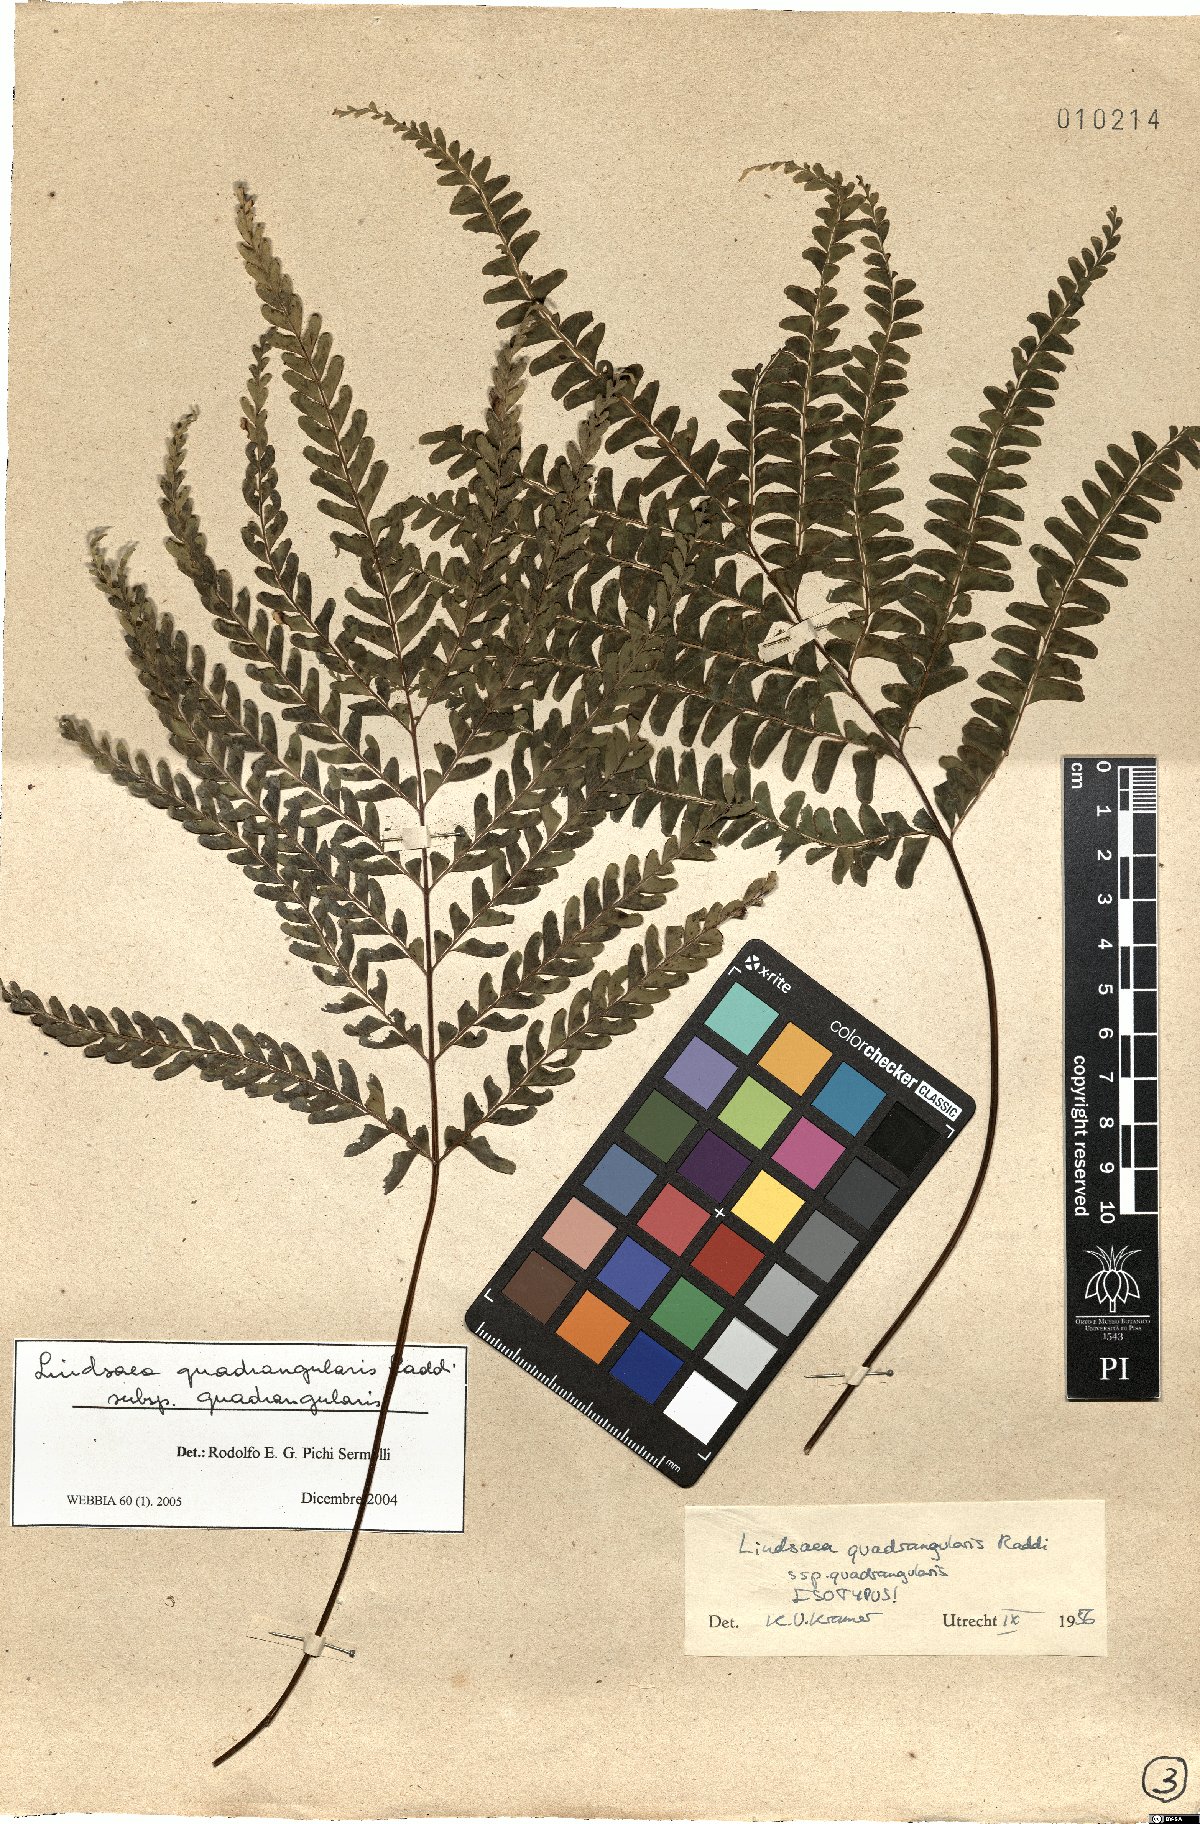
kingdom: Plantae
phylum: Tracheophyta
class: Polypodiopsida
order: Polypodiales
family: Lindsaeaceae
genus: Lindsaea
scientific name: Lindsaea quadrangularis
